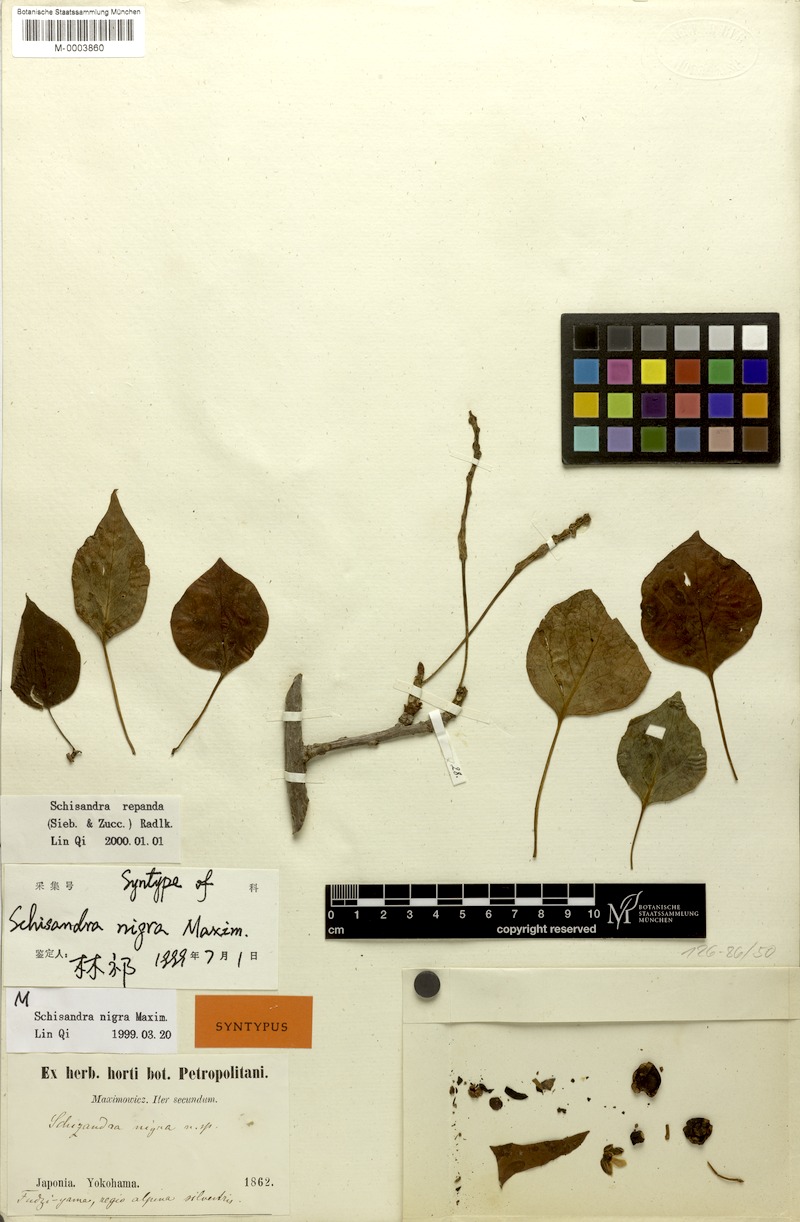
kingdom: Plantae
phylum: Tracheophyta
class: Magnoliopsida
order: Austrobaileyales
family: Schisandraceae
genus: Schisandra
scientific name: Schisandra repanda
